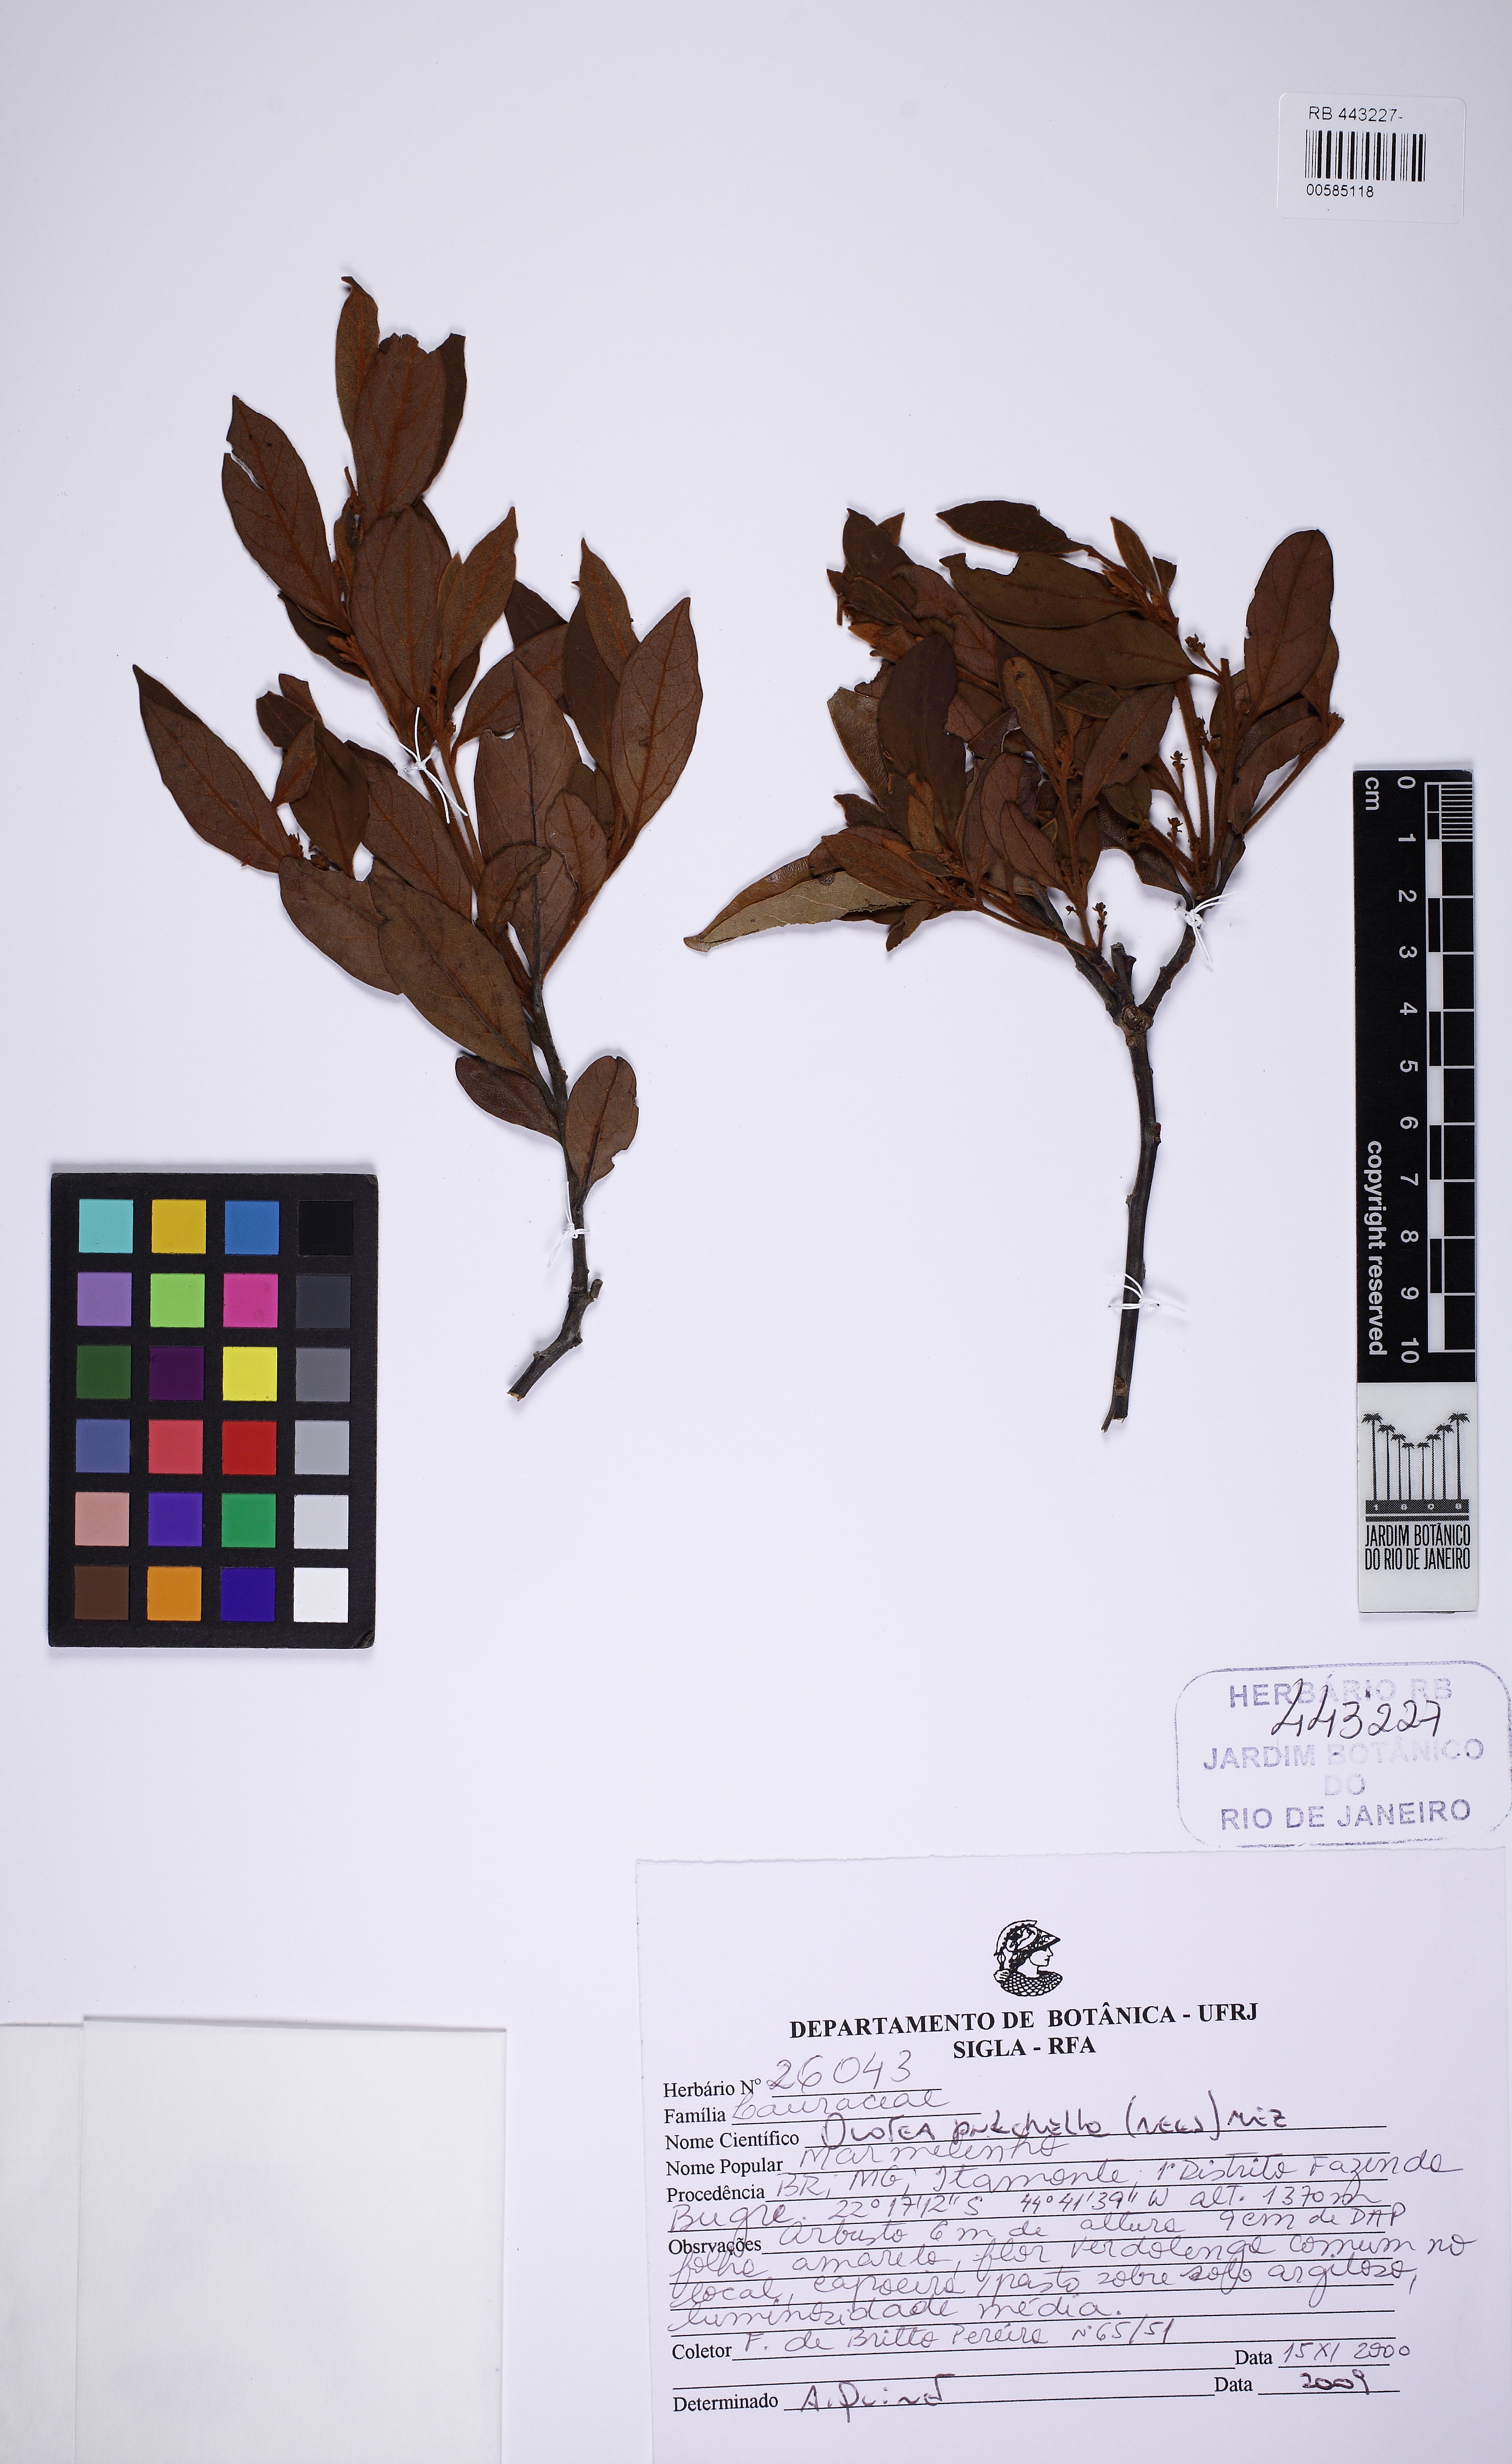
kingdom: Plantae
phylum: Tracheophyta
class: Magnoliopsida
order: Laurales
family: Lauraceae
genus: Mespilodaphne
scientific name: Mespilodaphne pulchella
